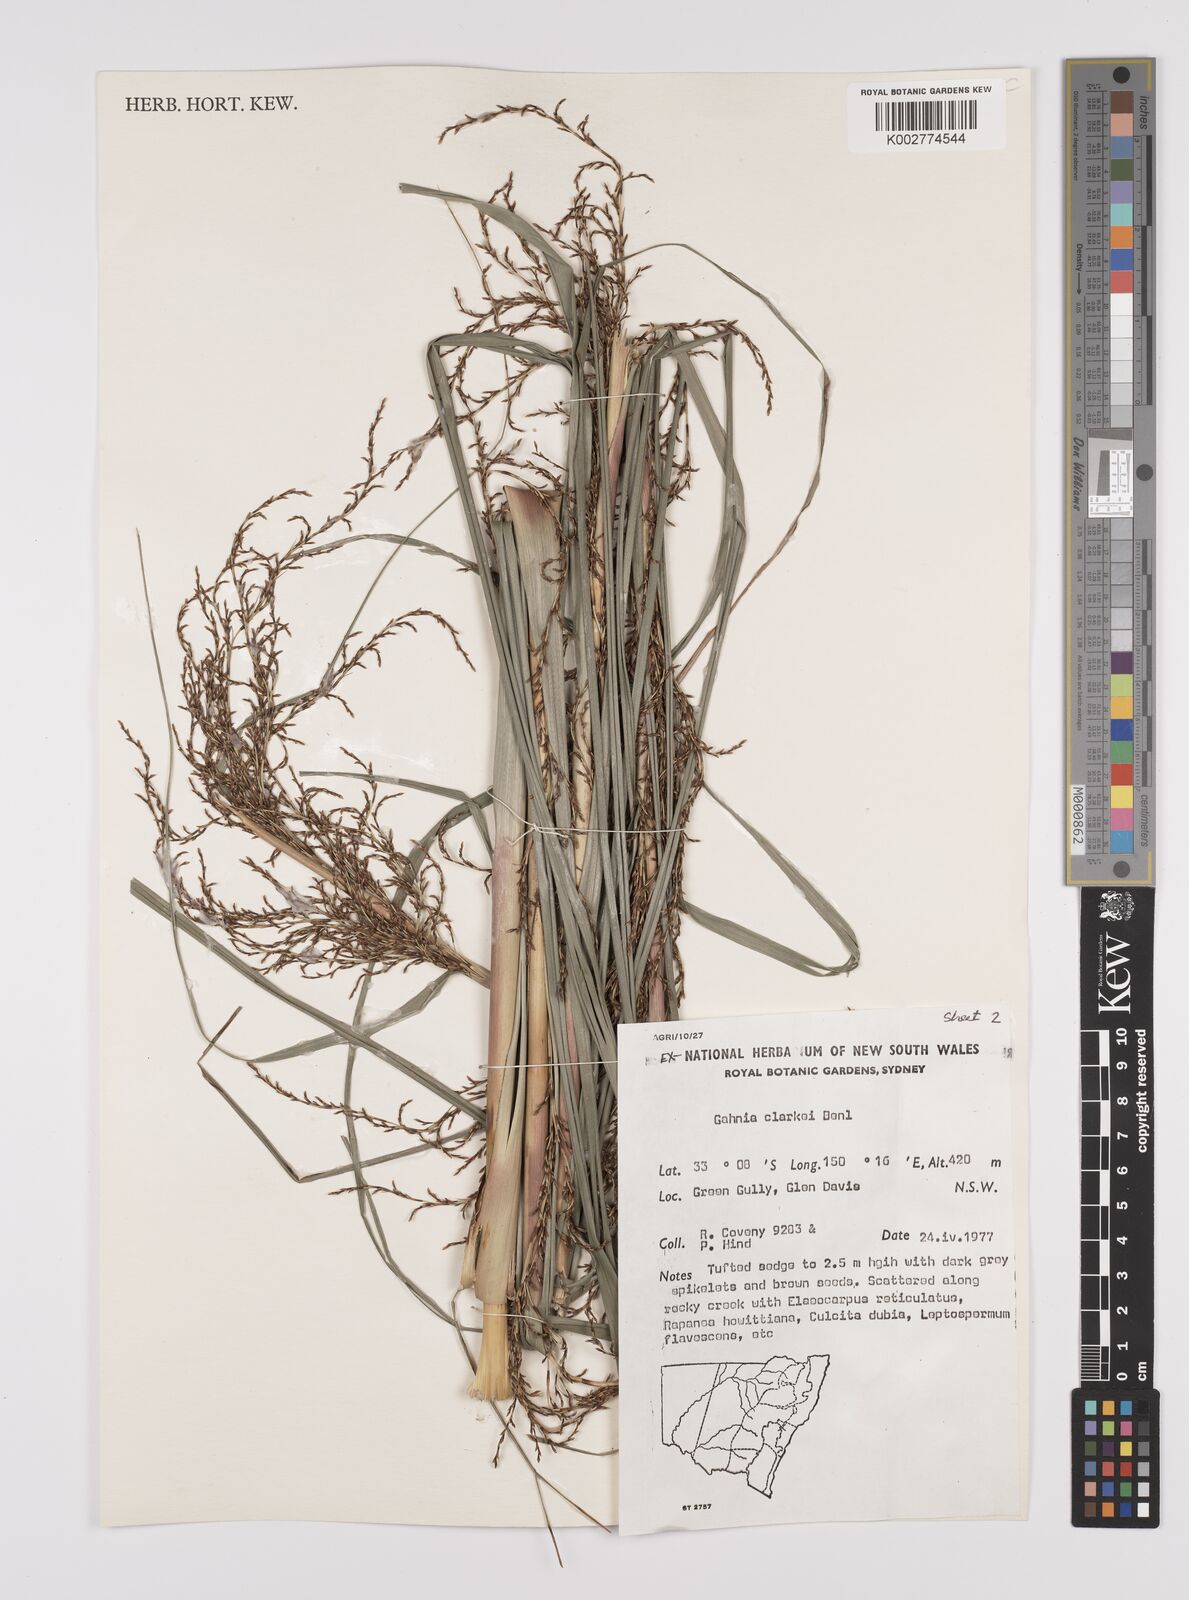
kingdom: Plantae
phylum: Tracheophyta
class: Liliopsida
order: Poales
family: Cyperaceae
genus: Gahnia
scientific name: Gahnia clarkei
